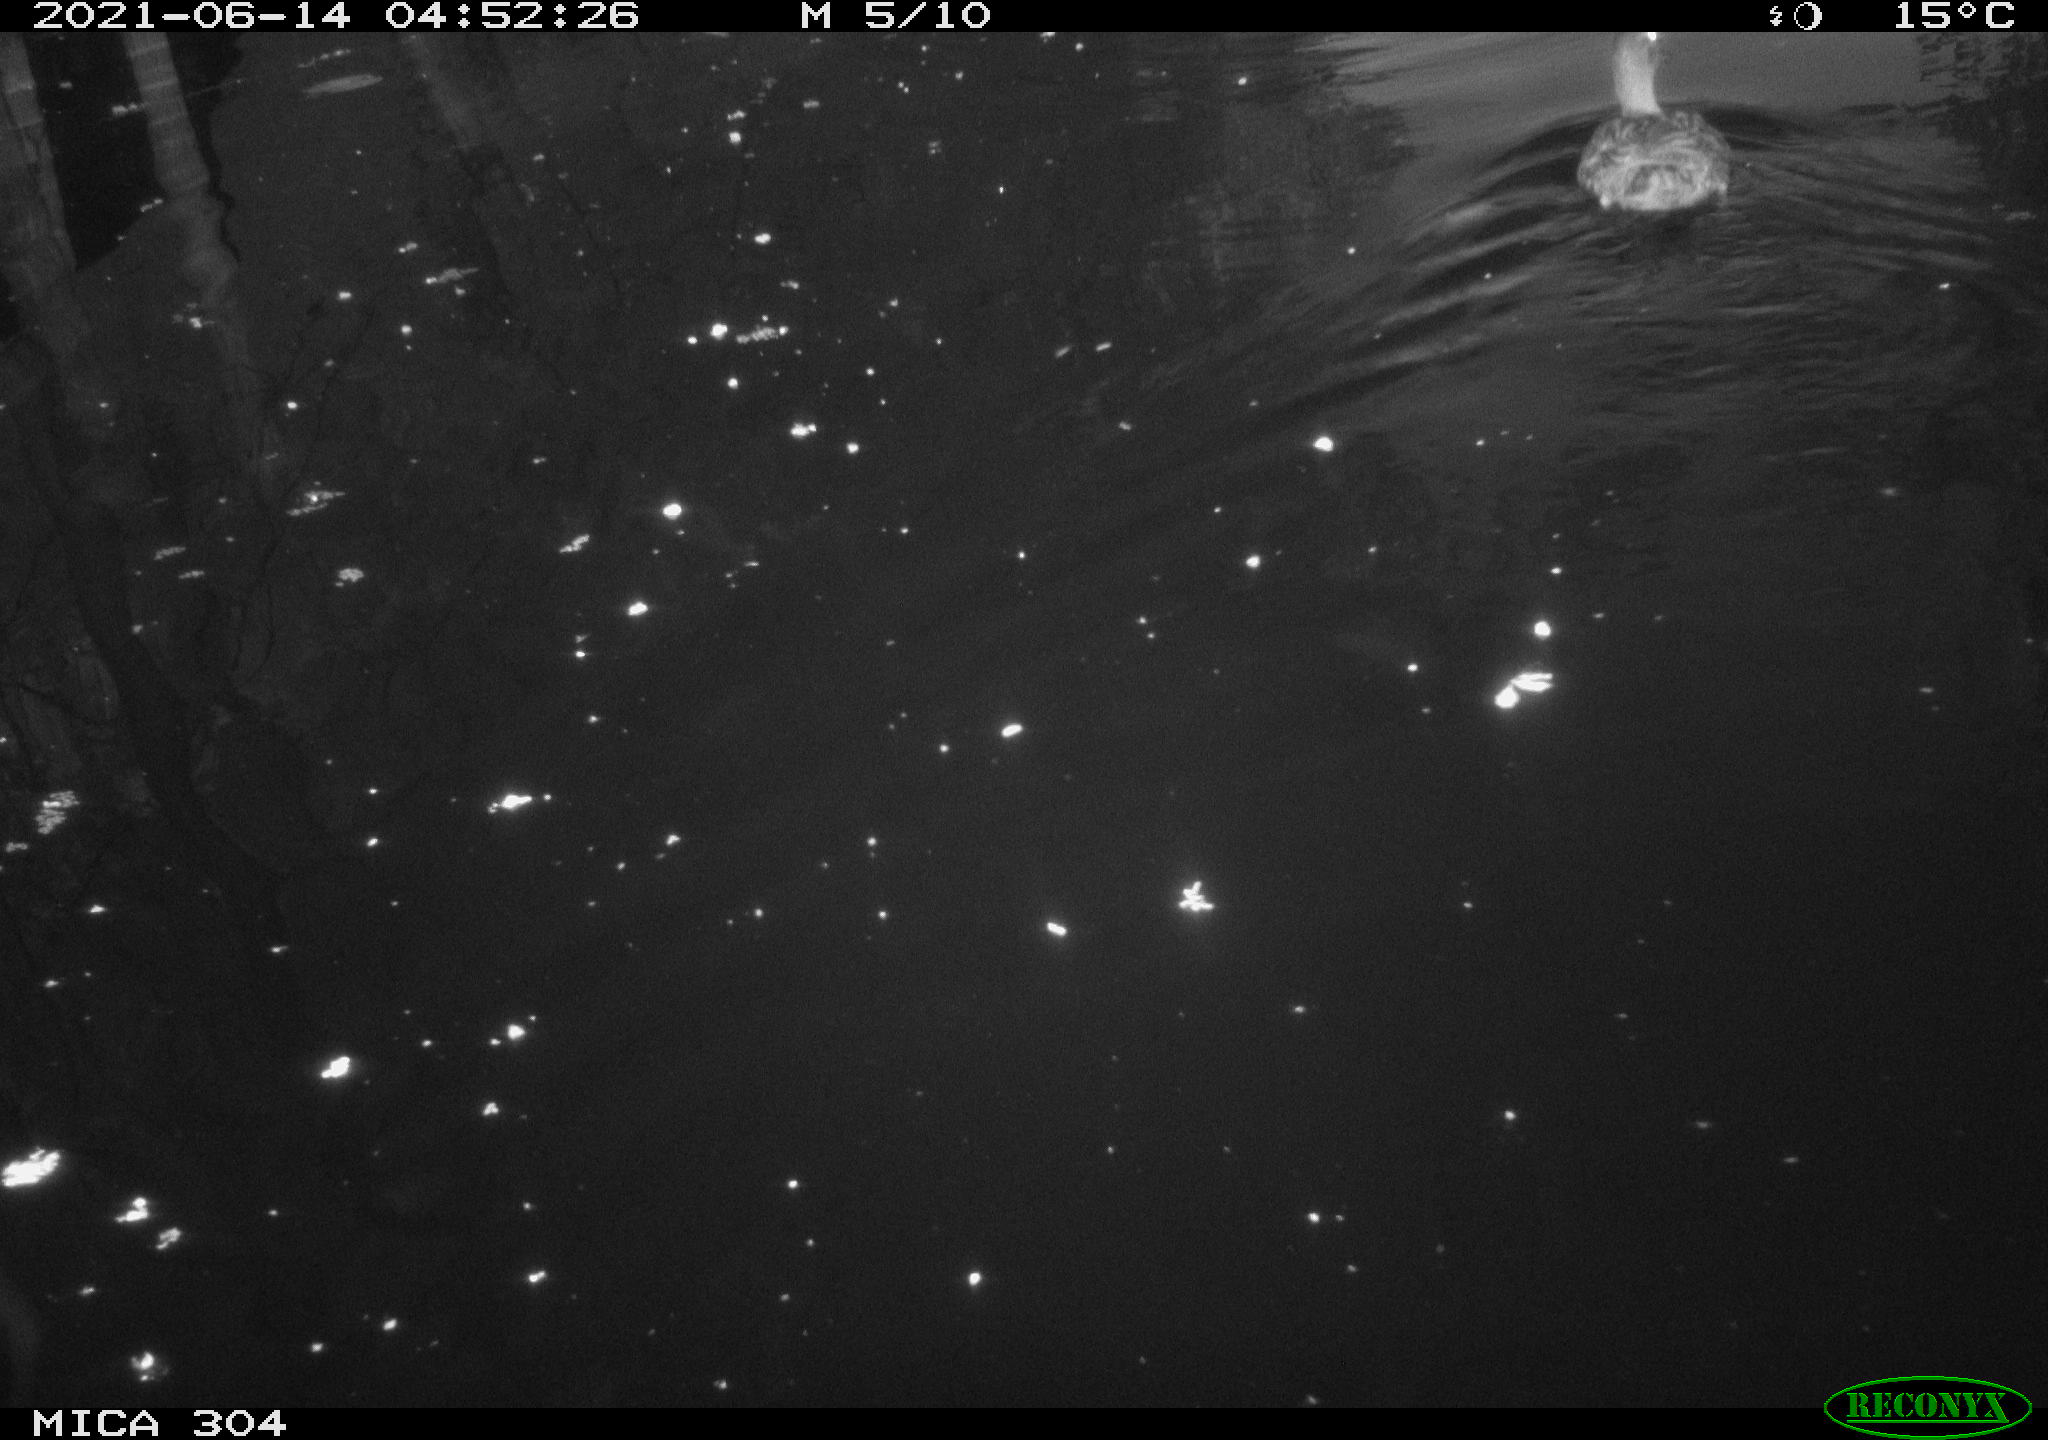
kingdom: Animalia
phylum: Chordata
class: Aves
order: Anseriformes
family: Anatidae
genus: Mareca
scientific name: Mareca strepera
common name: Gadwall
